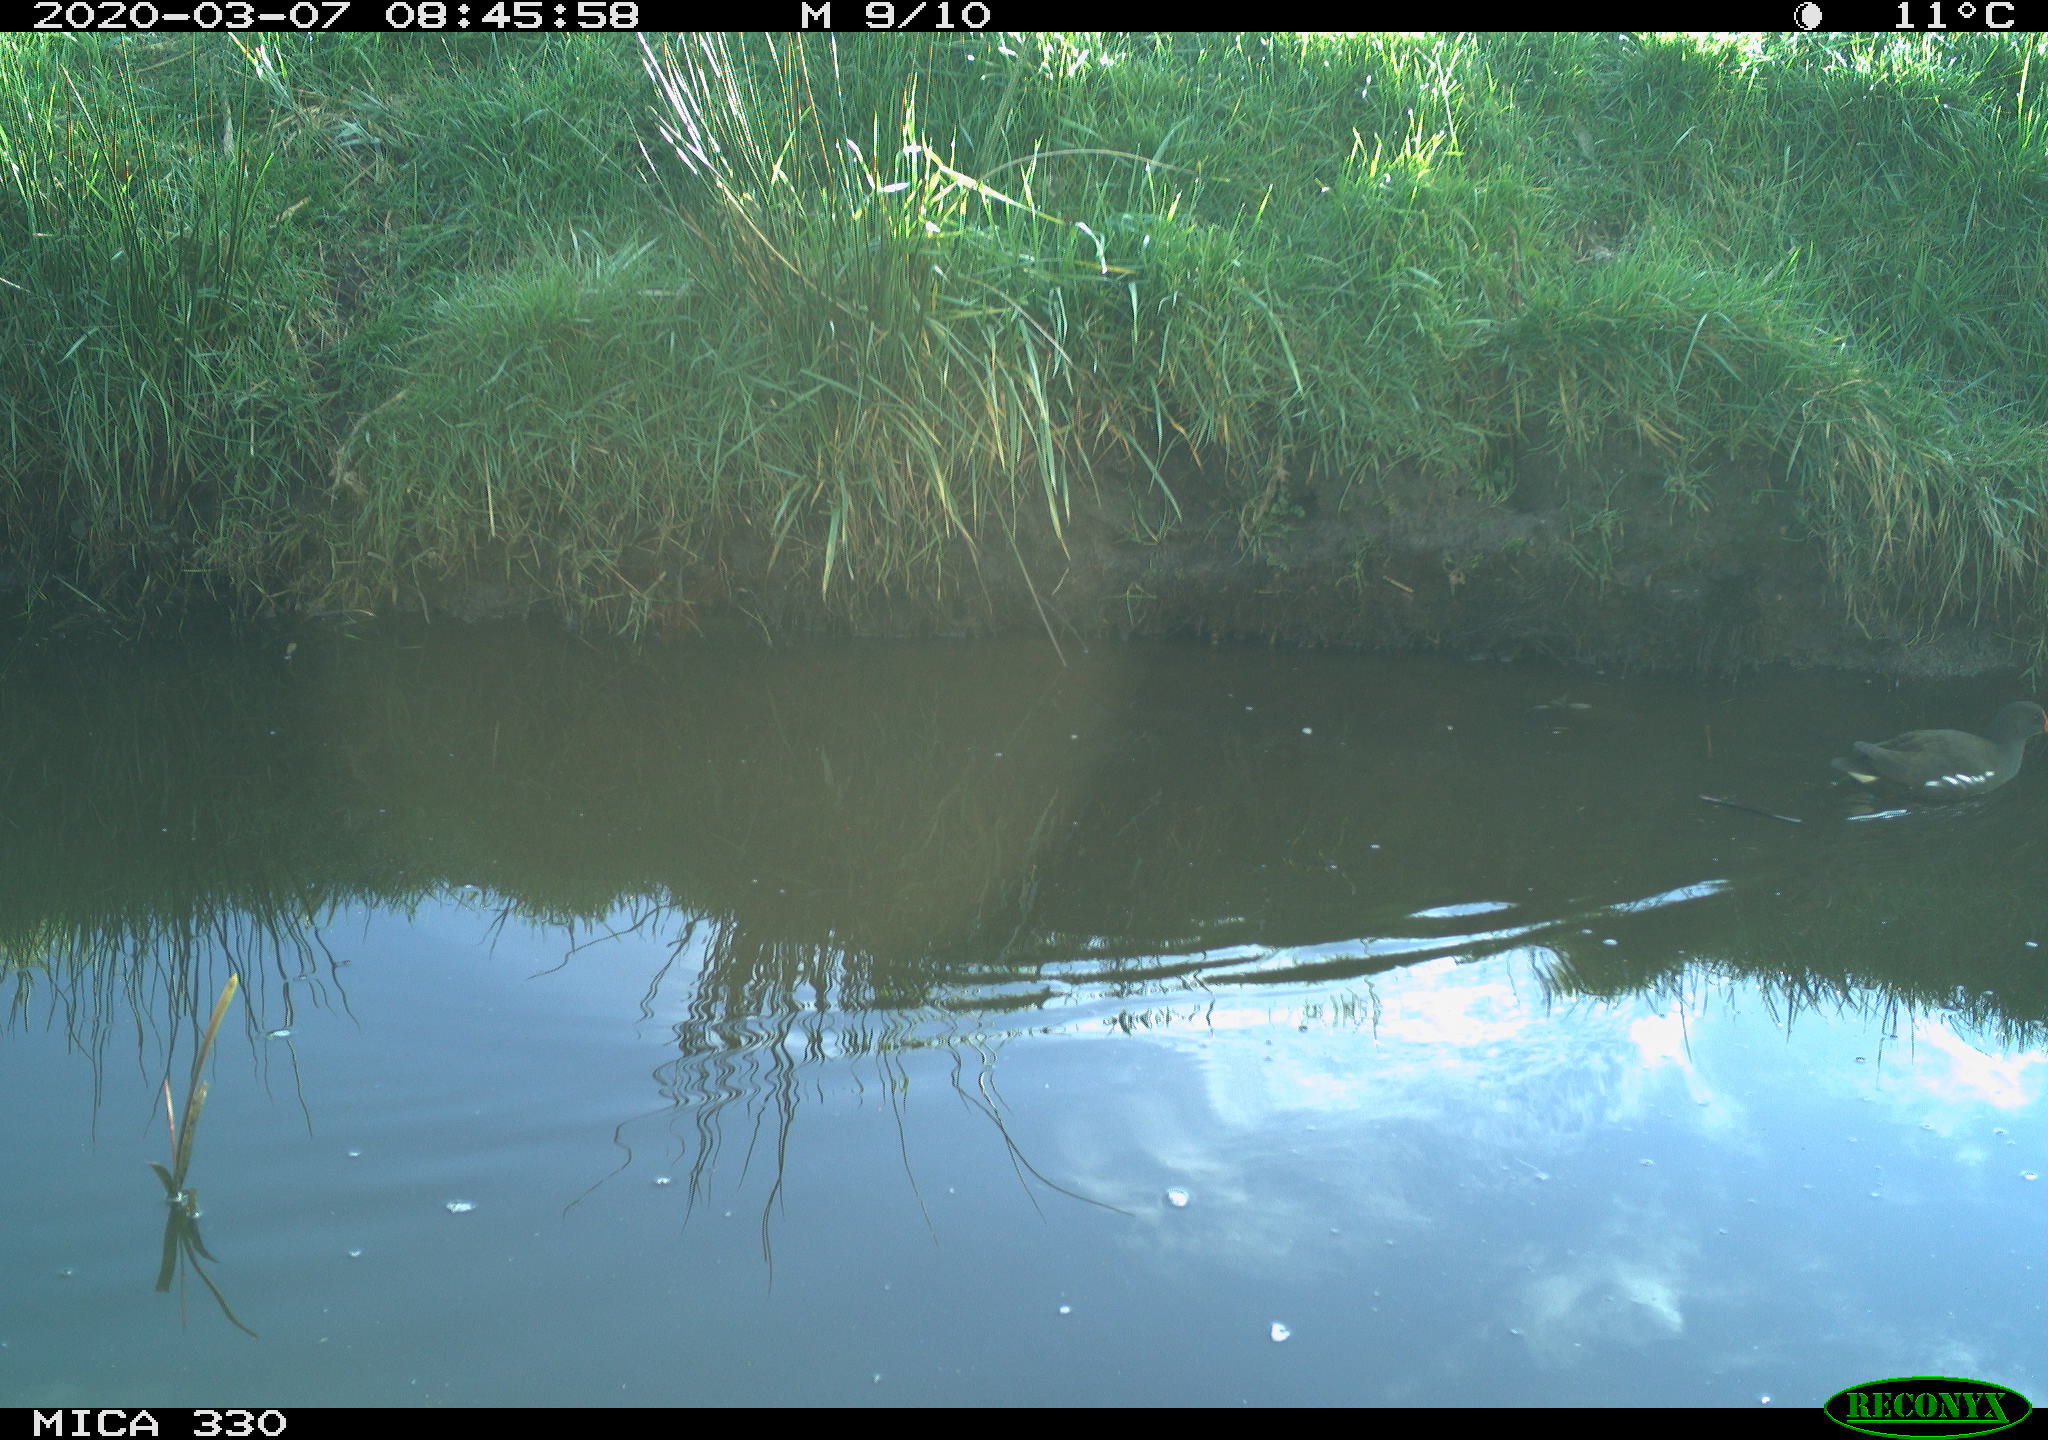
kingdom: Animalia
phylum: Chordata
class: Aves
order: Gruiformes
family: Rallidae
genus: Gallinula
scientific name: Gallinula chloropus
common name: Common moorhen
